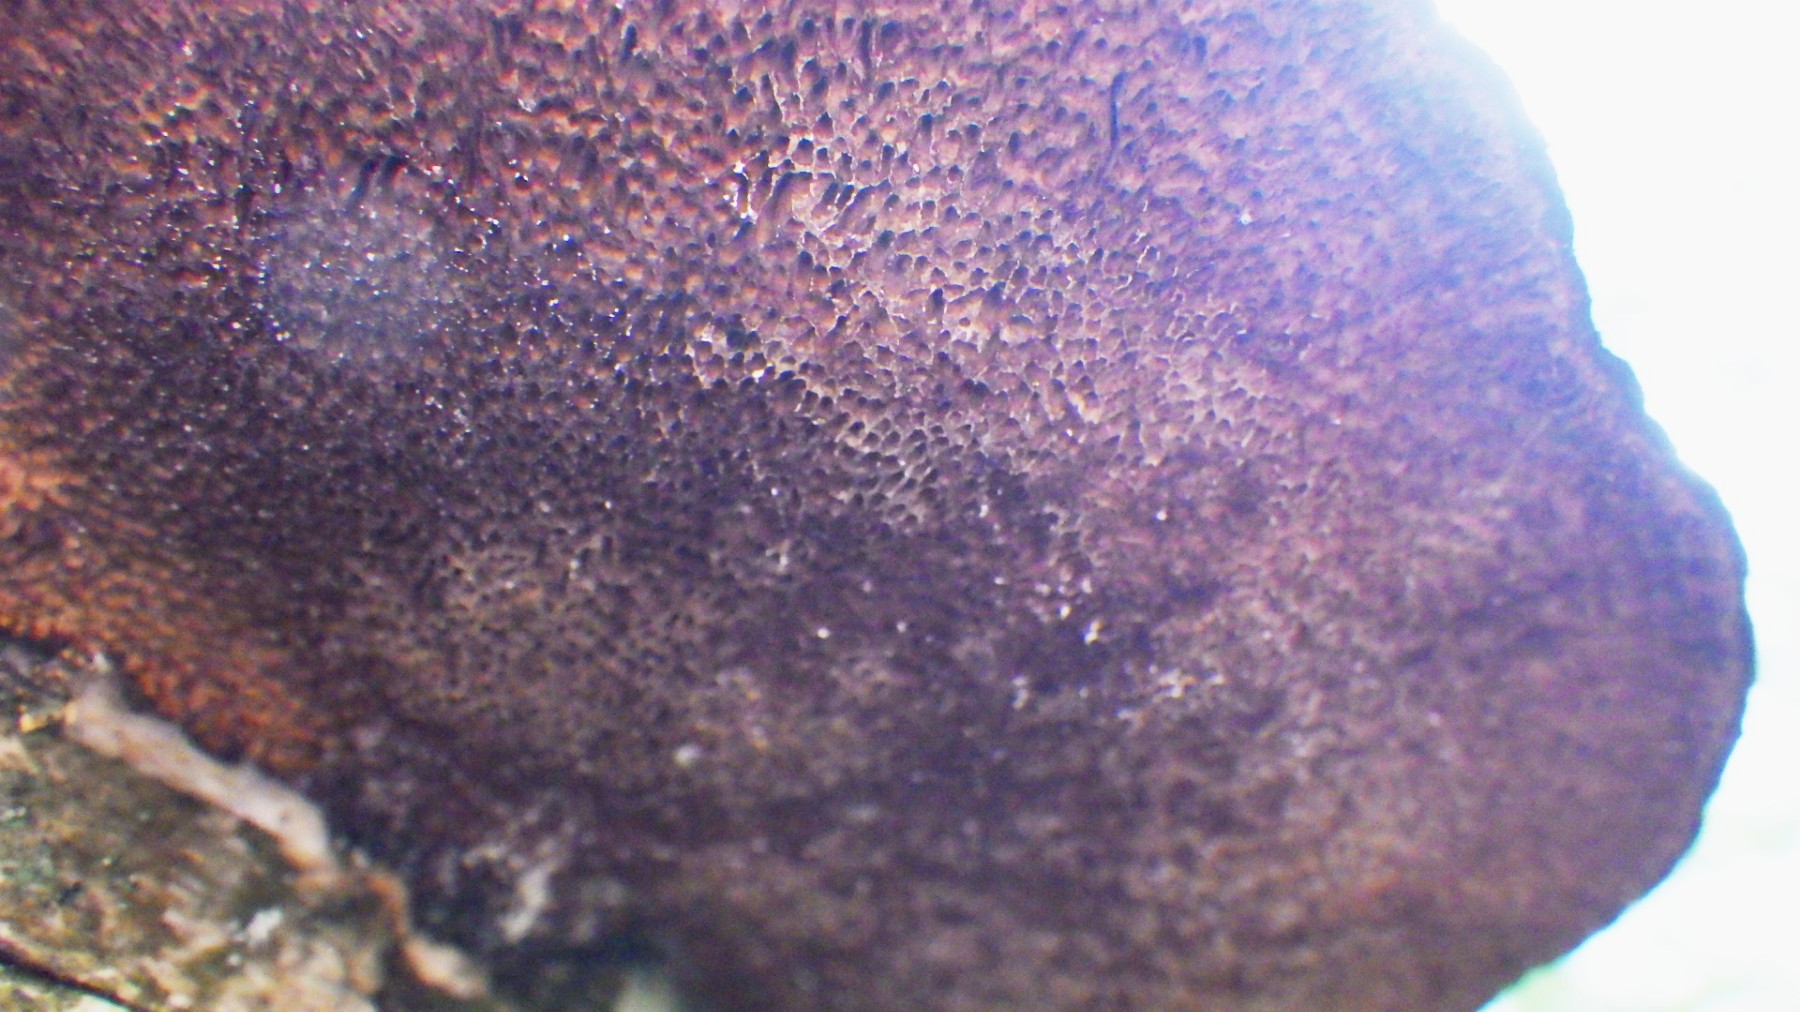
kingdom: Fungi
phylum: Basidiomycota
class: Agaricomycetes
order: Polyporales
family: Polyporaceae
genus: Daedaleopsis
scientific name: Daedaleopsis confragosa
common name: rødmende læderporesvamp
